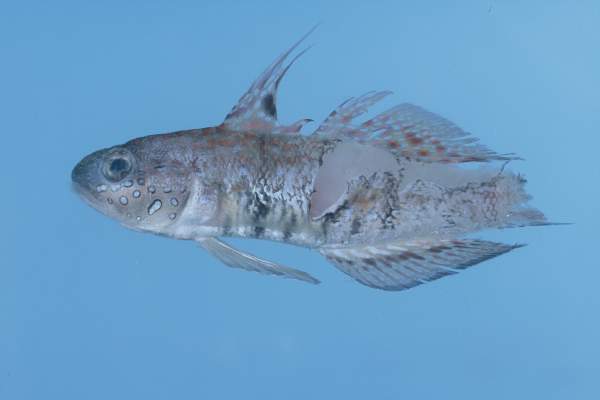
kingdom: Animalia
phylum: Chordata
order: Perciformes
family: Gobiidae
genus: Amblygobius
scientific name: Amblygobius semicinctus
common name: Halfbarred goby
